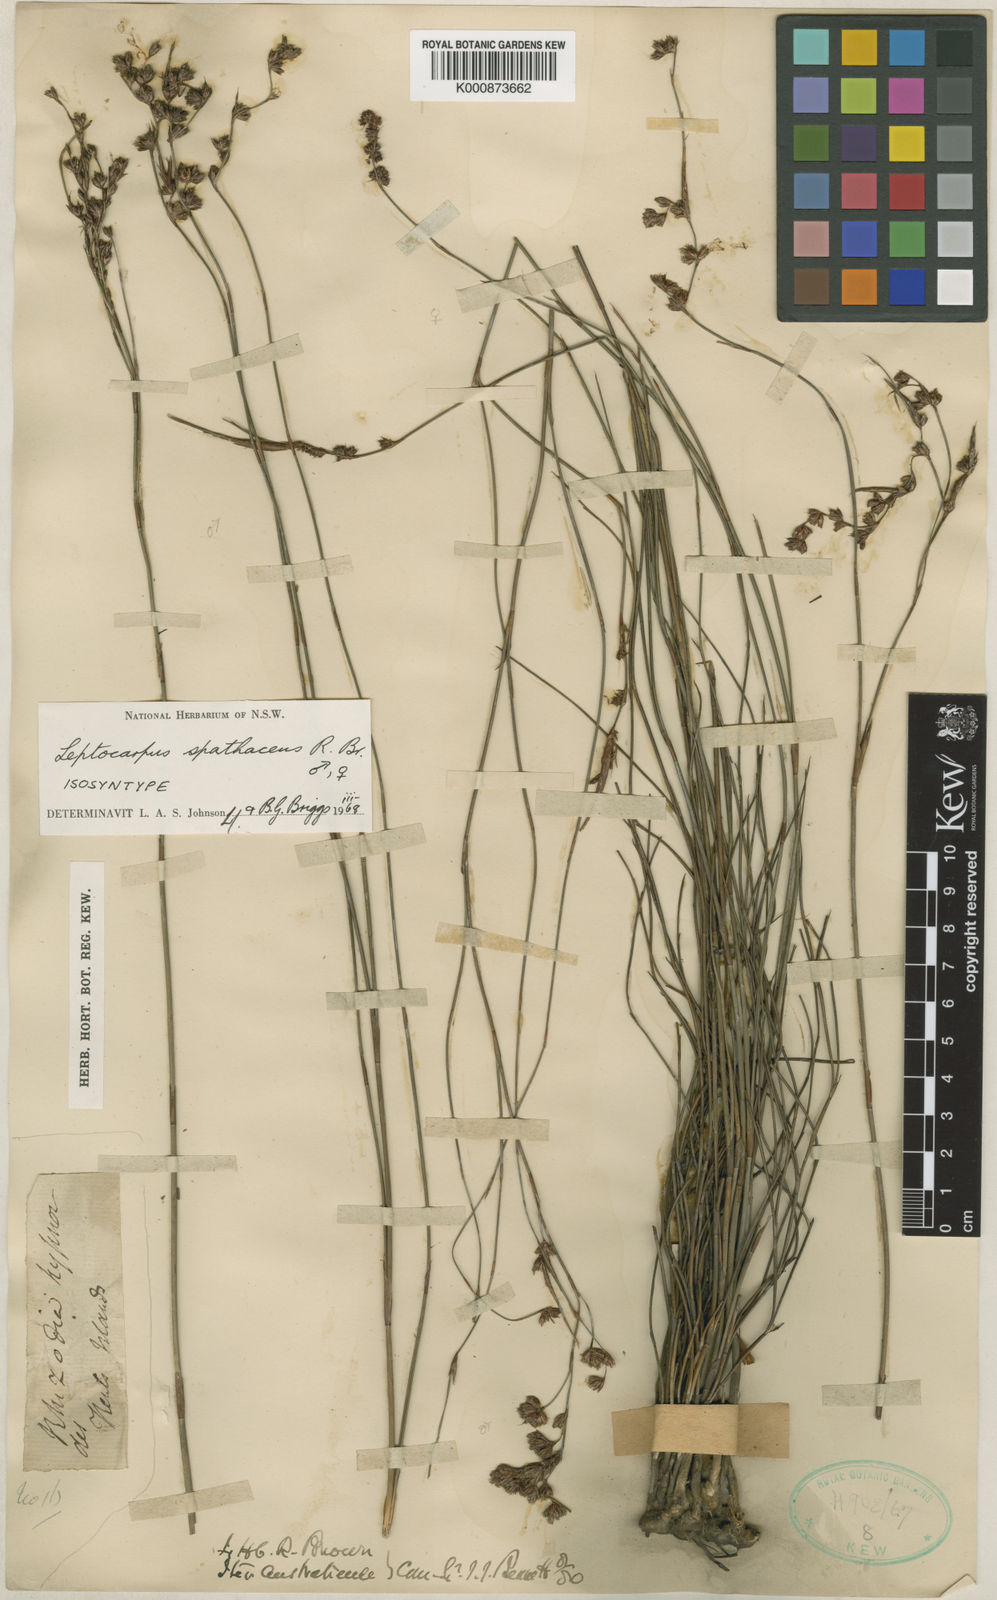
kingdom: Plantae
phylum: Tracheophyta
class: Liliopsida
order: Poales
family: Restionaceae
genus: Dapsilanthus
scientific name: Dapsilanthus spathaceus
